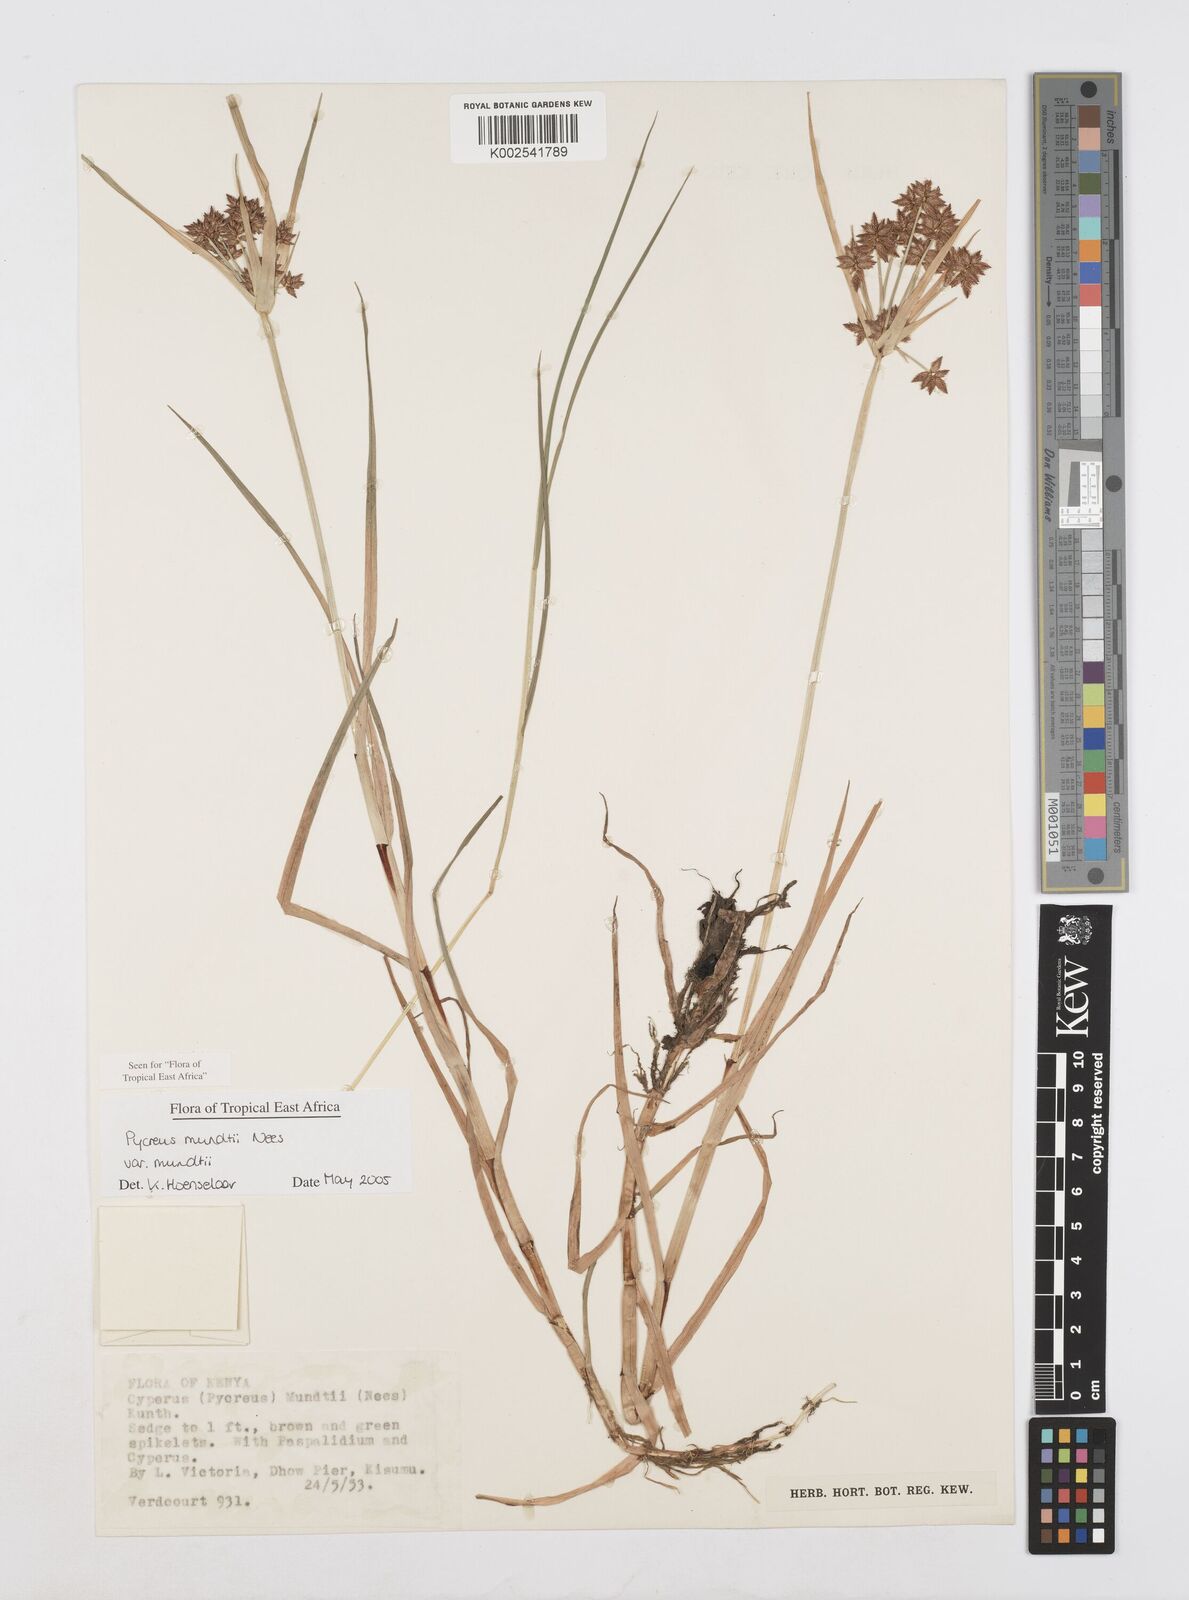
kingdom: Plantae
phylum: Tracheophyta
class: Liliopsida
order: Poales
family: Cyperaceae
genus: Cyperus
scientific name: Cyperus mundii
